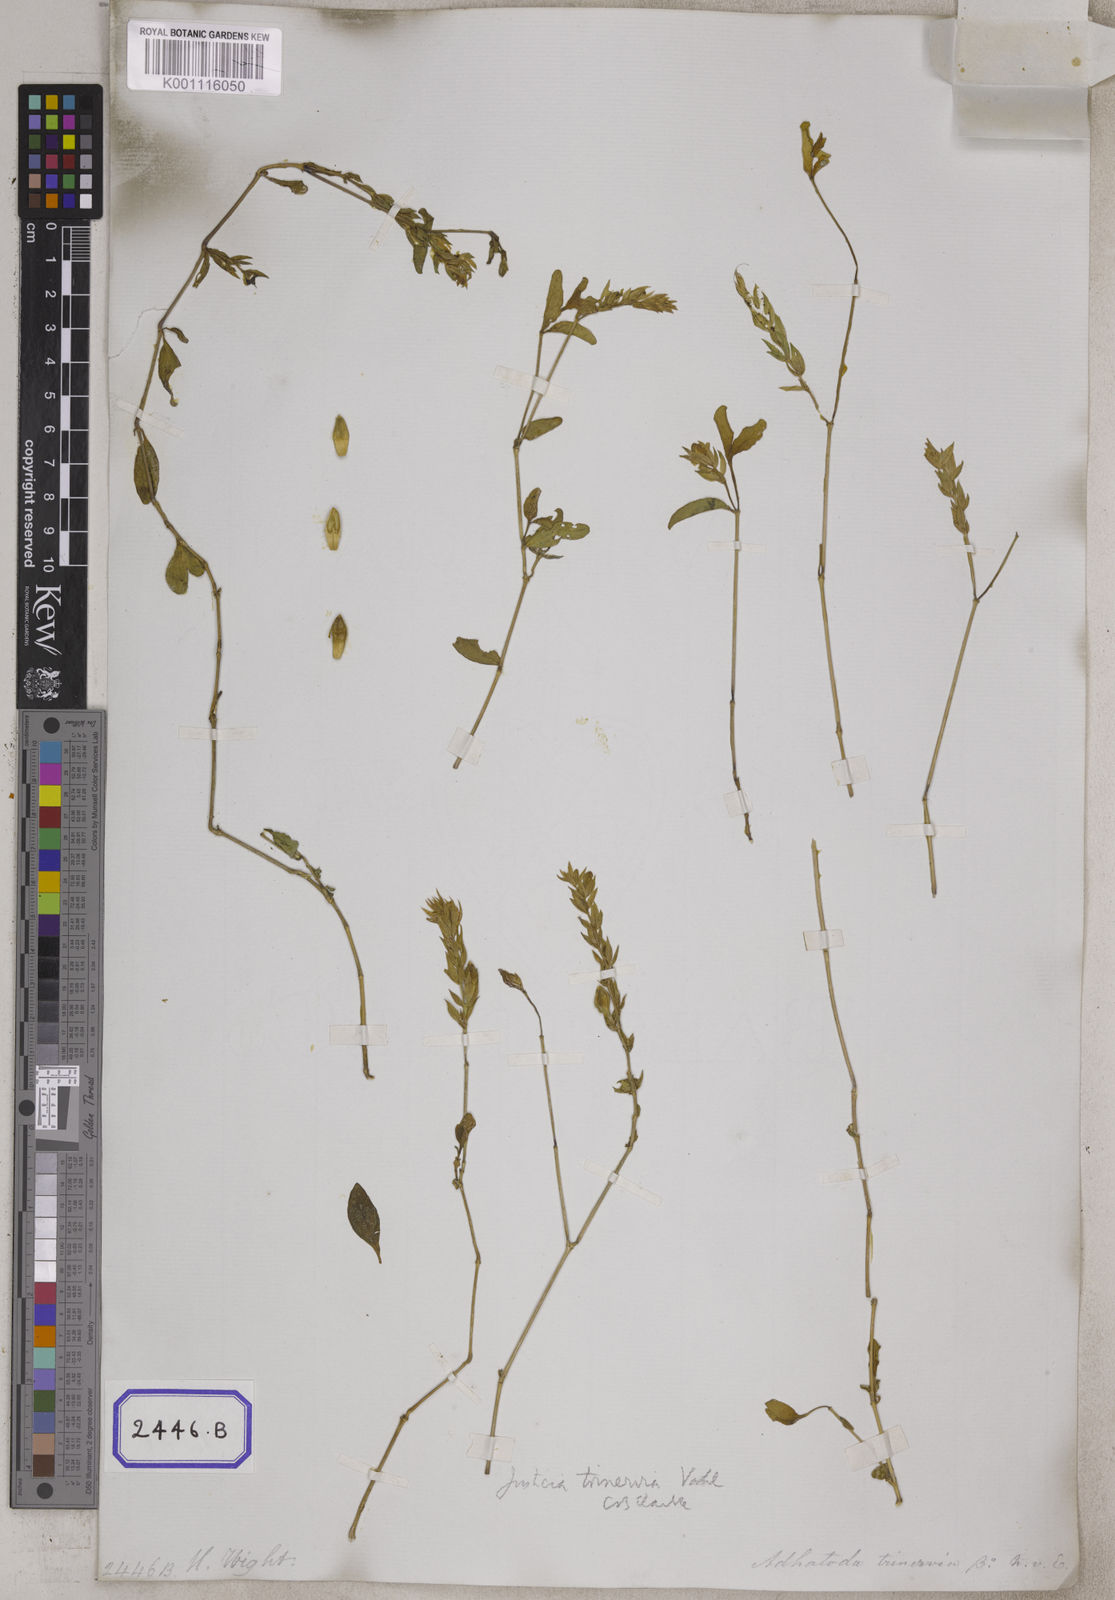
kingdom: Plantae
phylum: Tracheophyta
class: Magnoliopsida
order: Lamiales
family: Acanthaceae
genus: Nicoteba
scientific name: Nicoteba trinervia
